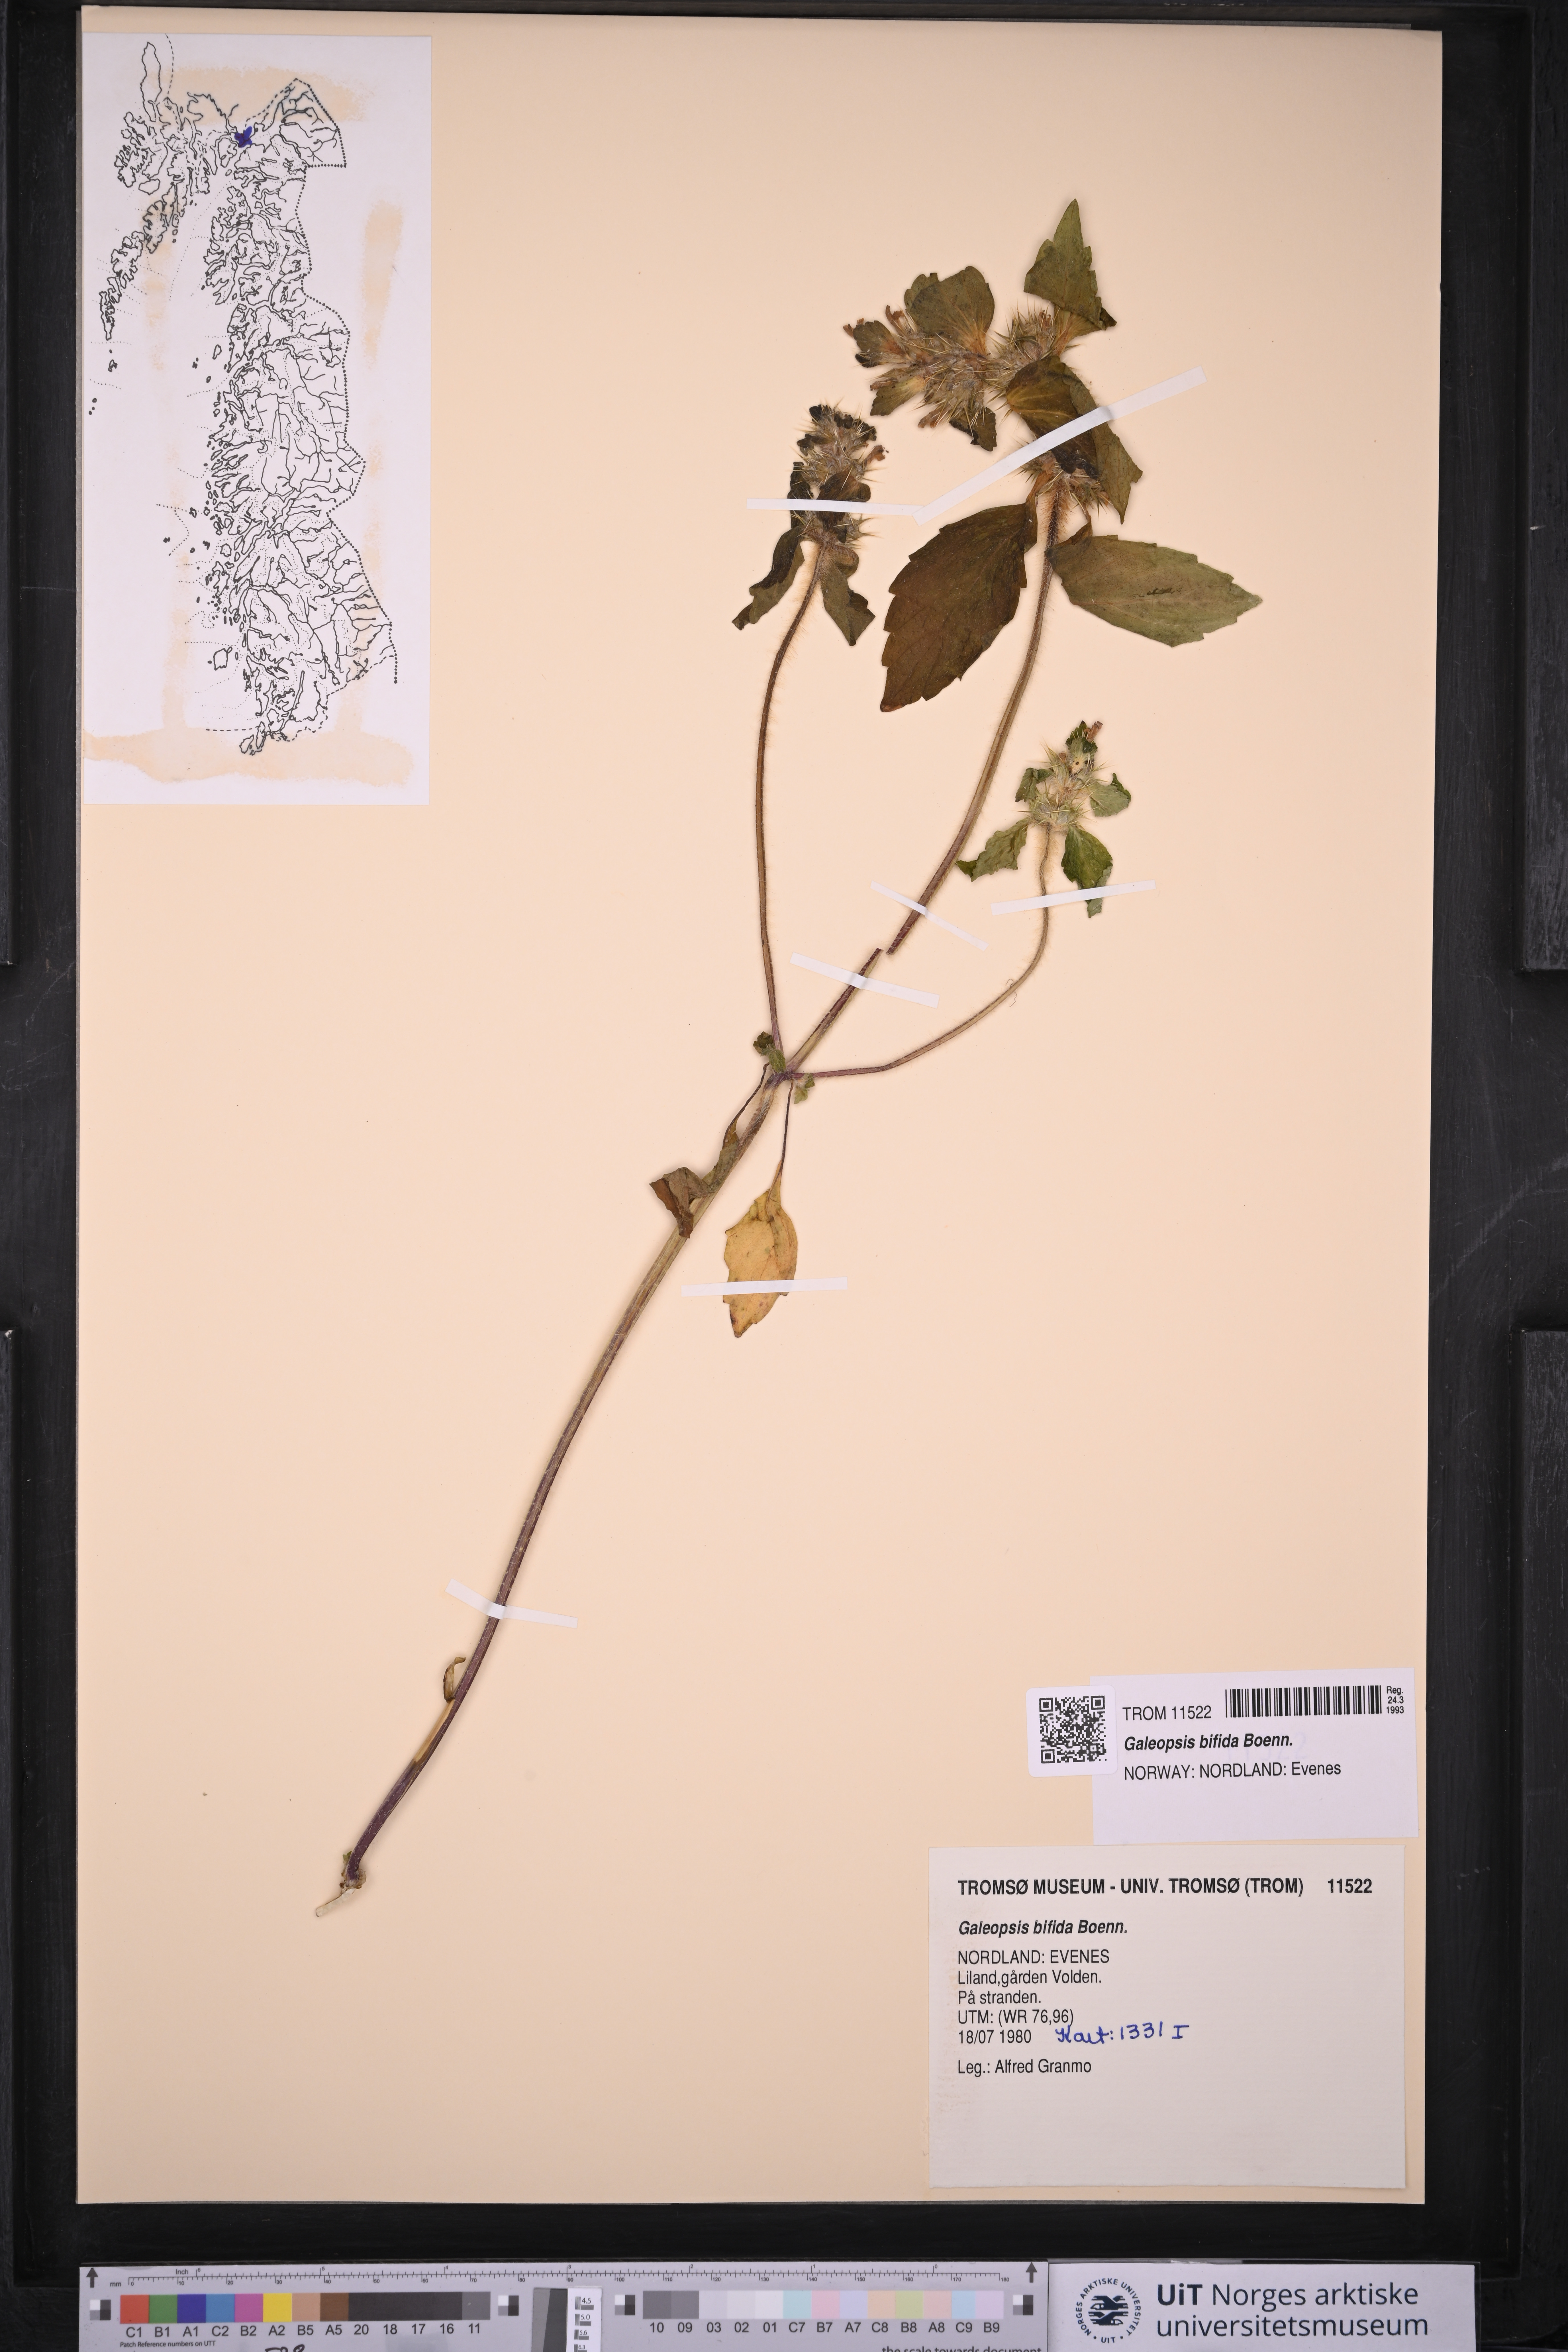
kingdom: Plantae
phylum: Tracheophyta
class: Magnoliopsida
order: Lamiales
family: Lamiaceae
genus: Galeopsis
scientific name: Galeopsis bifida
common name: Bifid hemp-nettle
